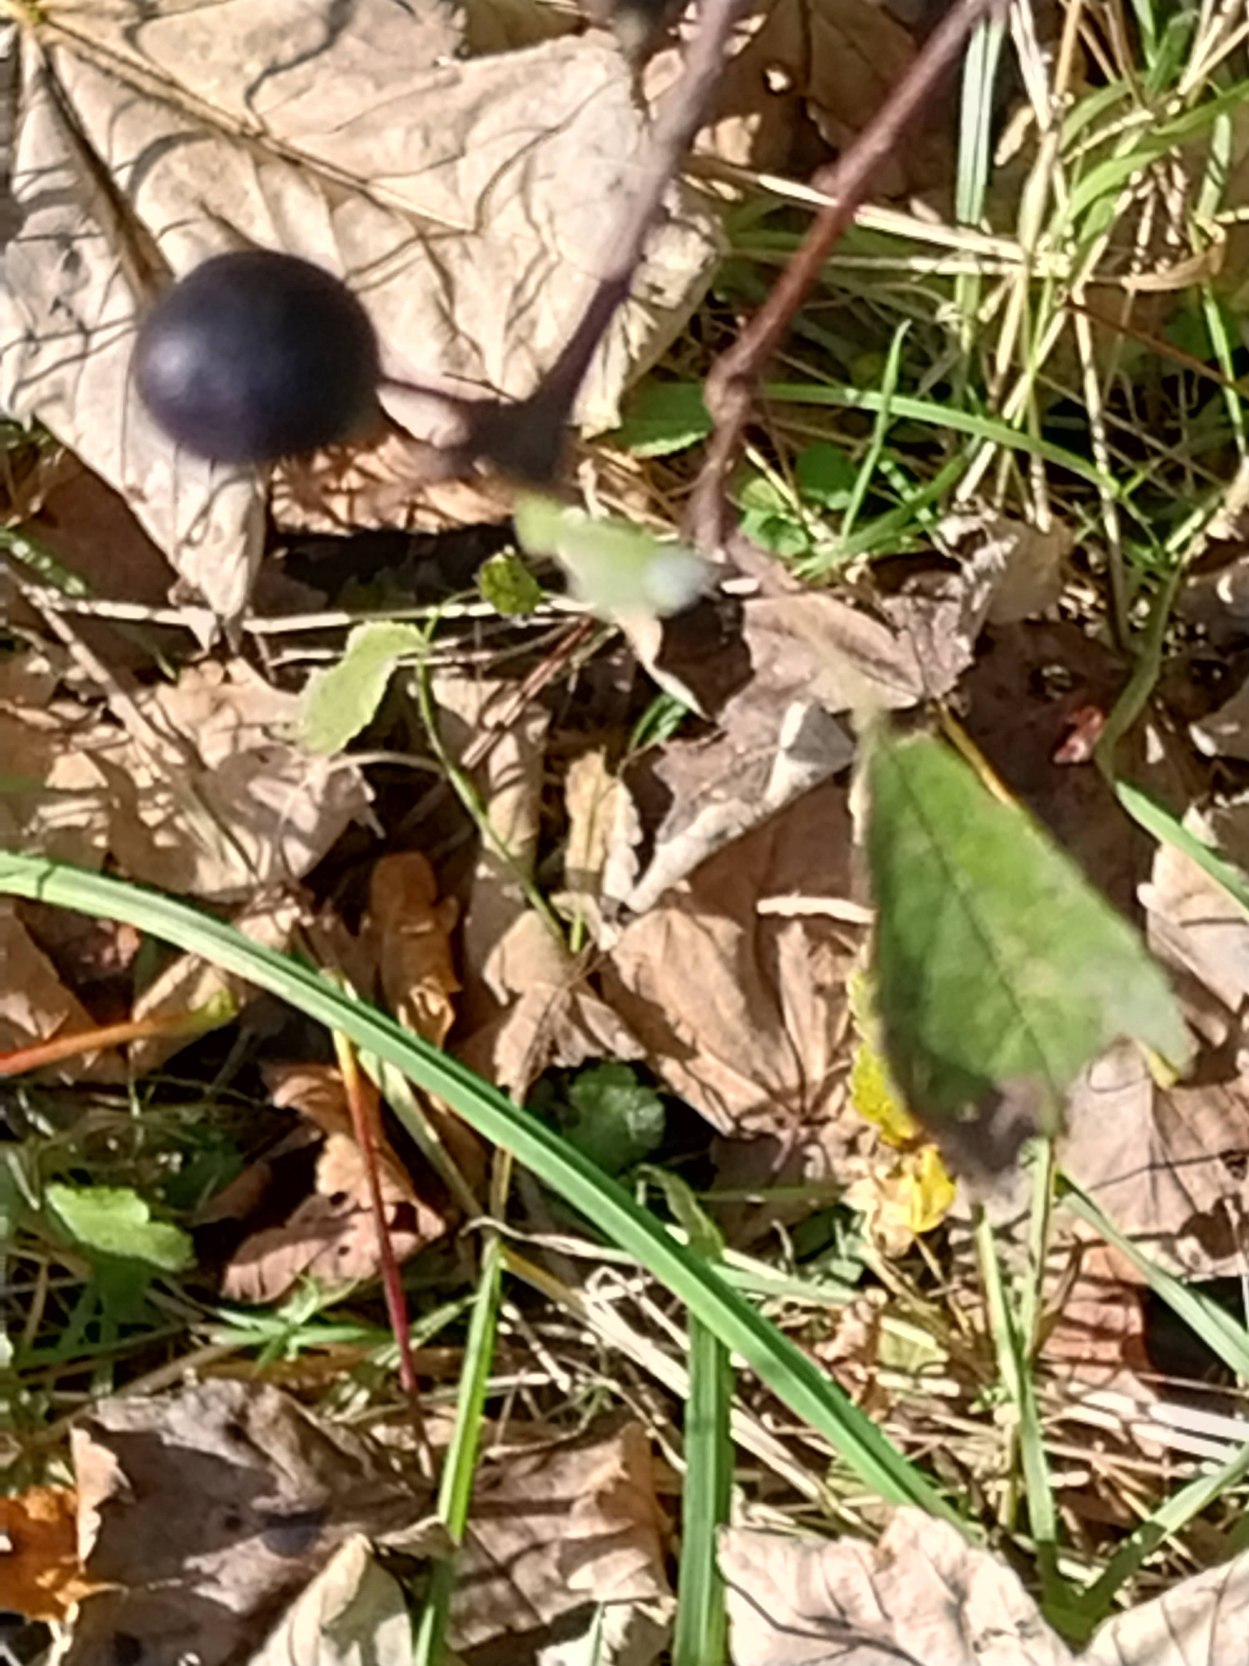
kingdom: Plantae
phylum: Tracheophyta
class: Magnoliopsida
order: Rosales
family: Rosaceae
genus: Prunus
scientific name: Prunus spinosa
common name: Slåen
